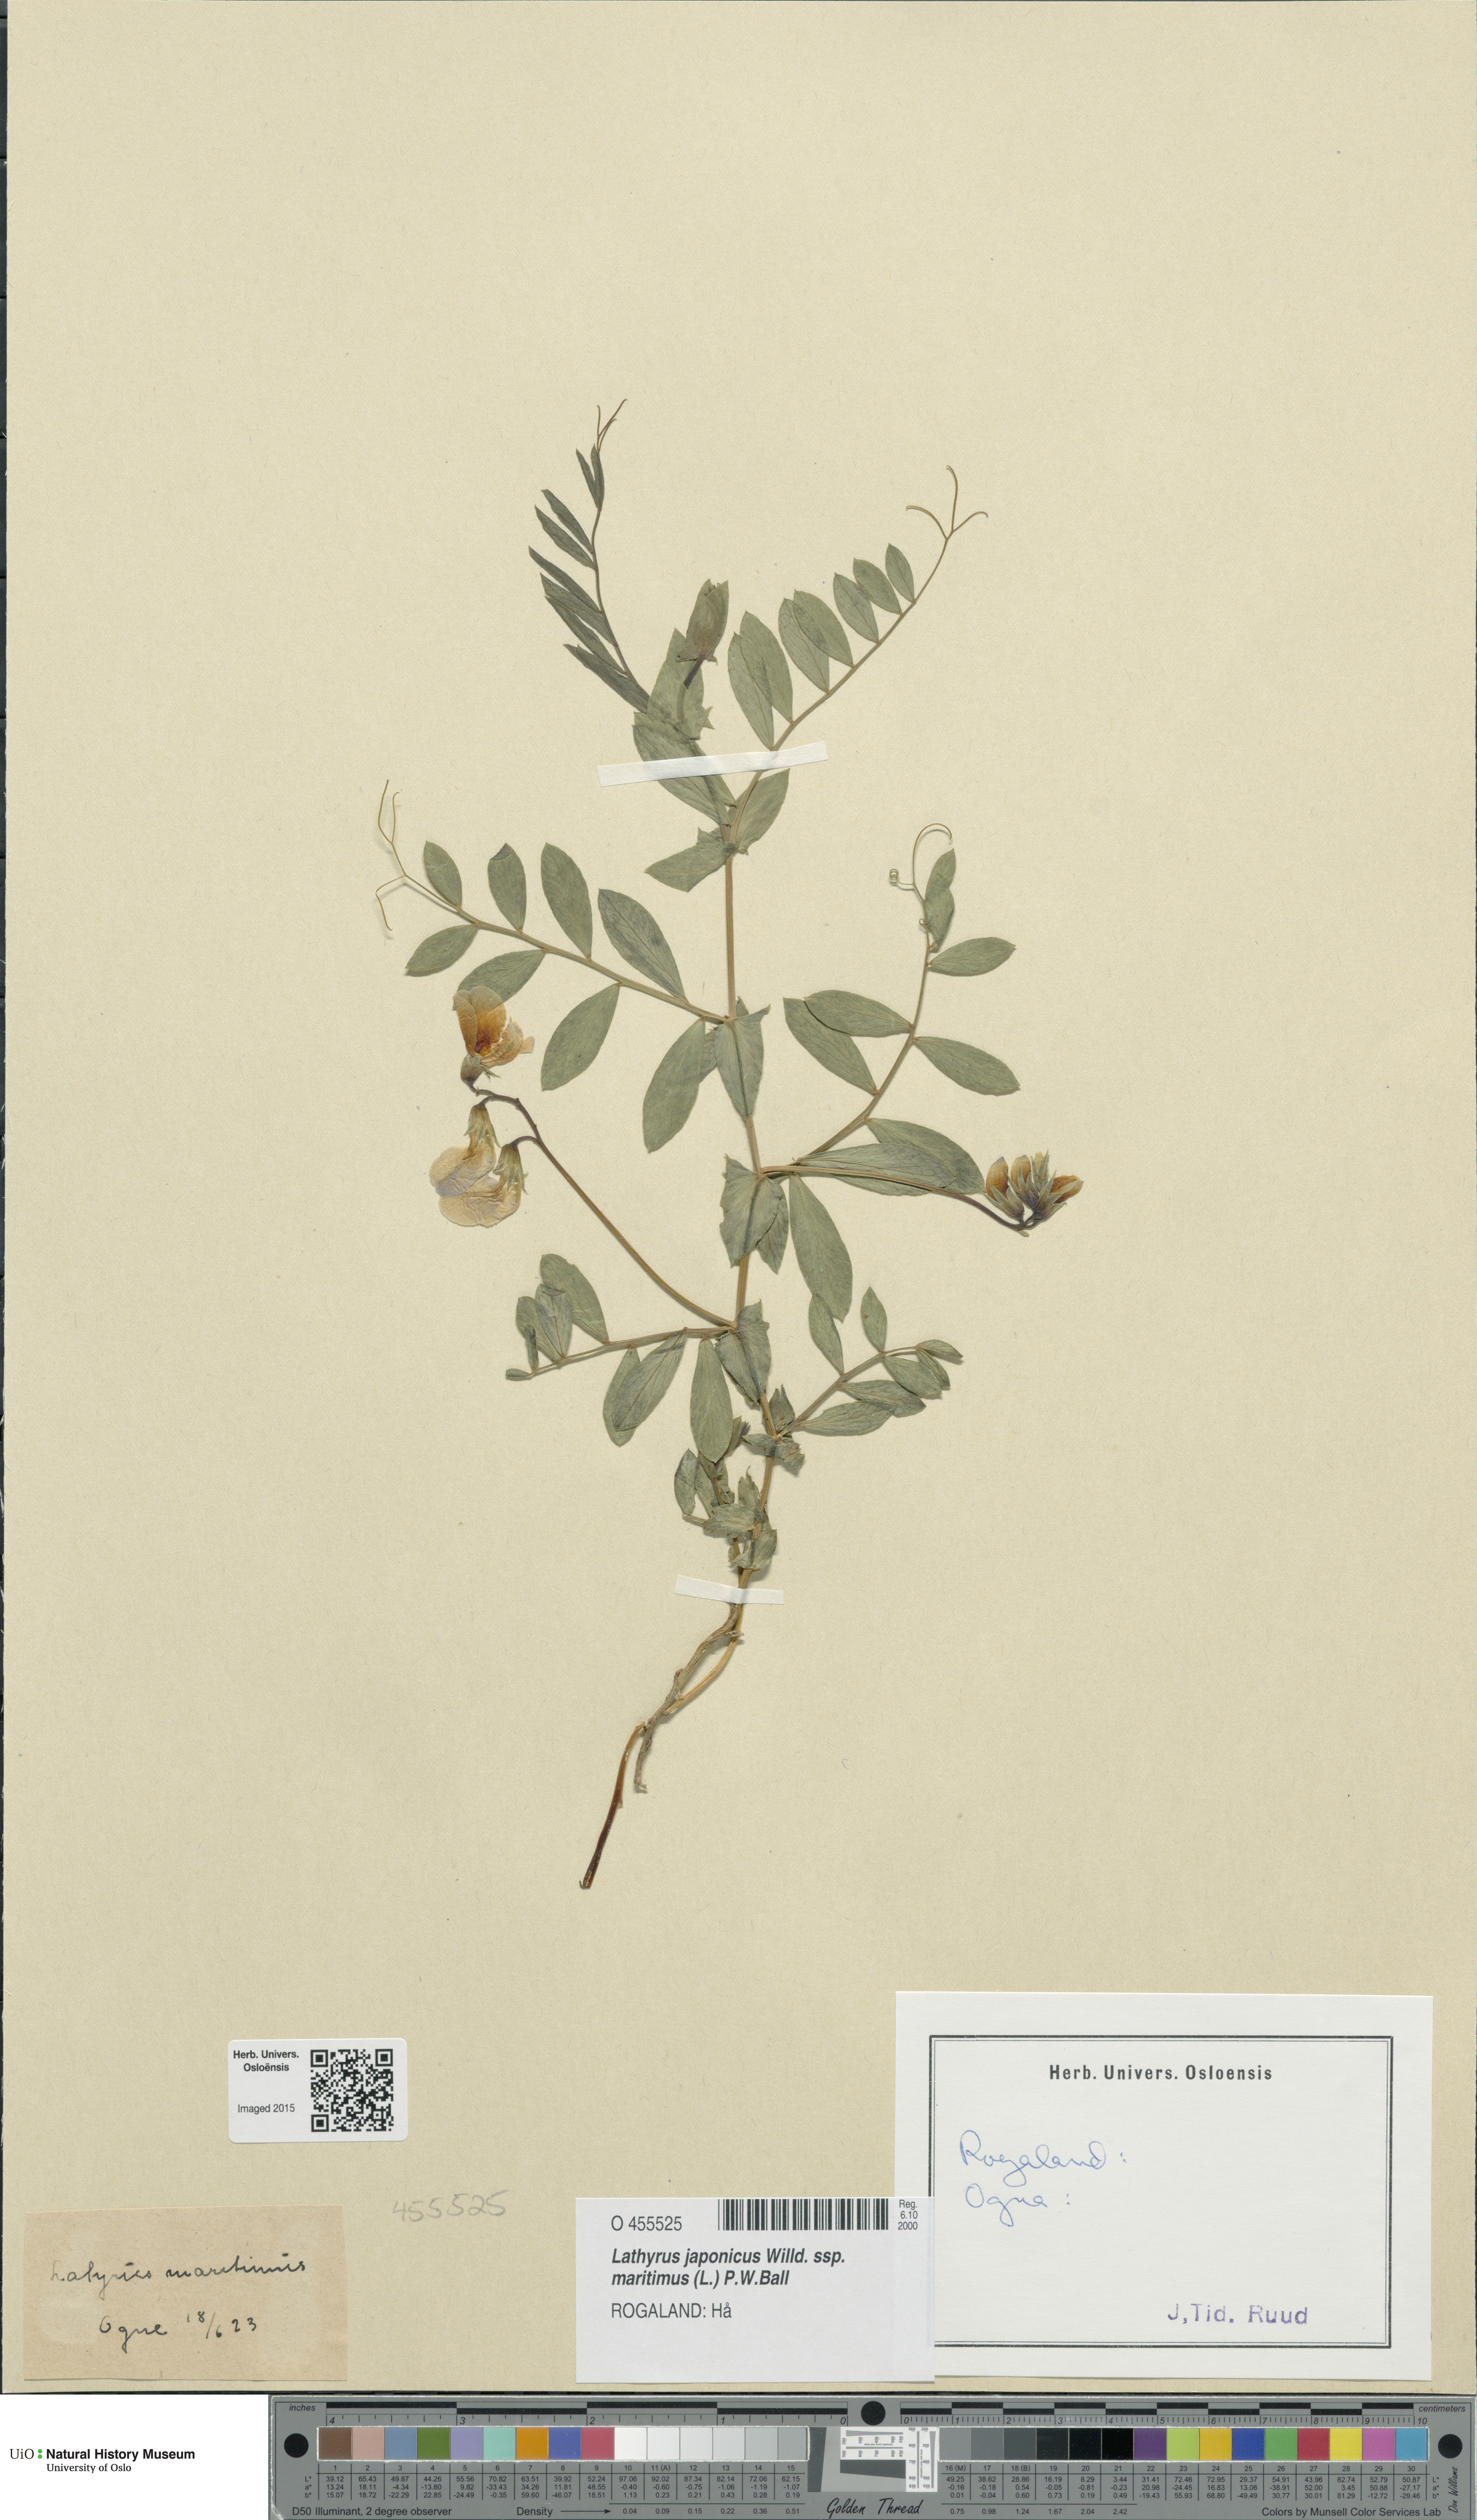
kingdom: Plantae
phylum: Tracheophyta
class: Magnoliopsida
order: Fabales
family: Fabaceae
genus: Lathyrus
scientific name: Lathyrus japonicus
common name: Sea pea
